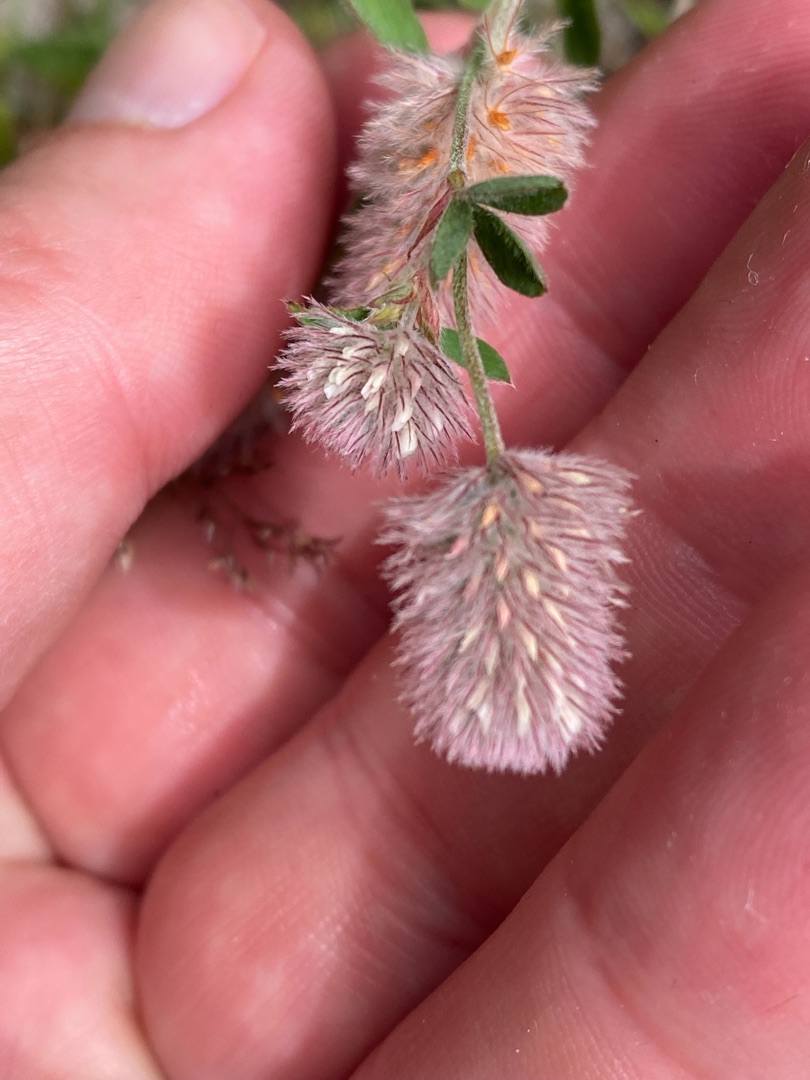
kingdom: Plantae
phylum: Tracheophyta
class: Magnoliopsida
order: Fabales
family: Fabaceae
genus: Trifolium
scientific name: Trifolium arvense
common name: Hare-kløver
